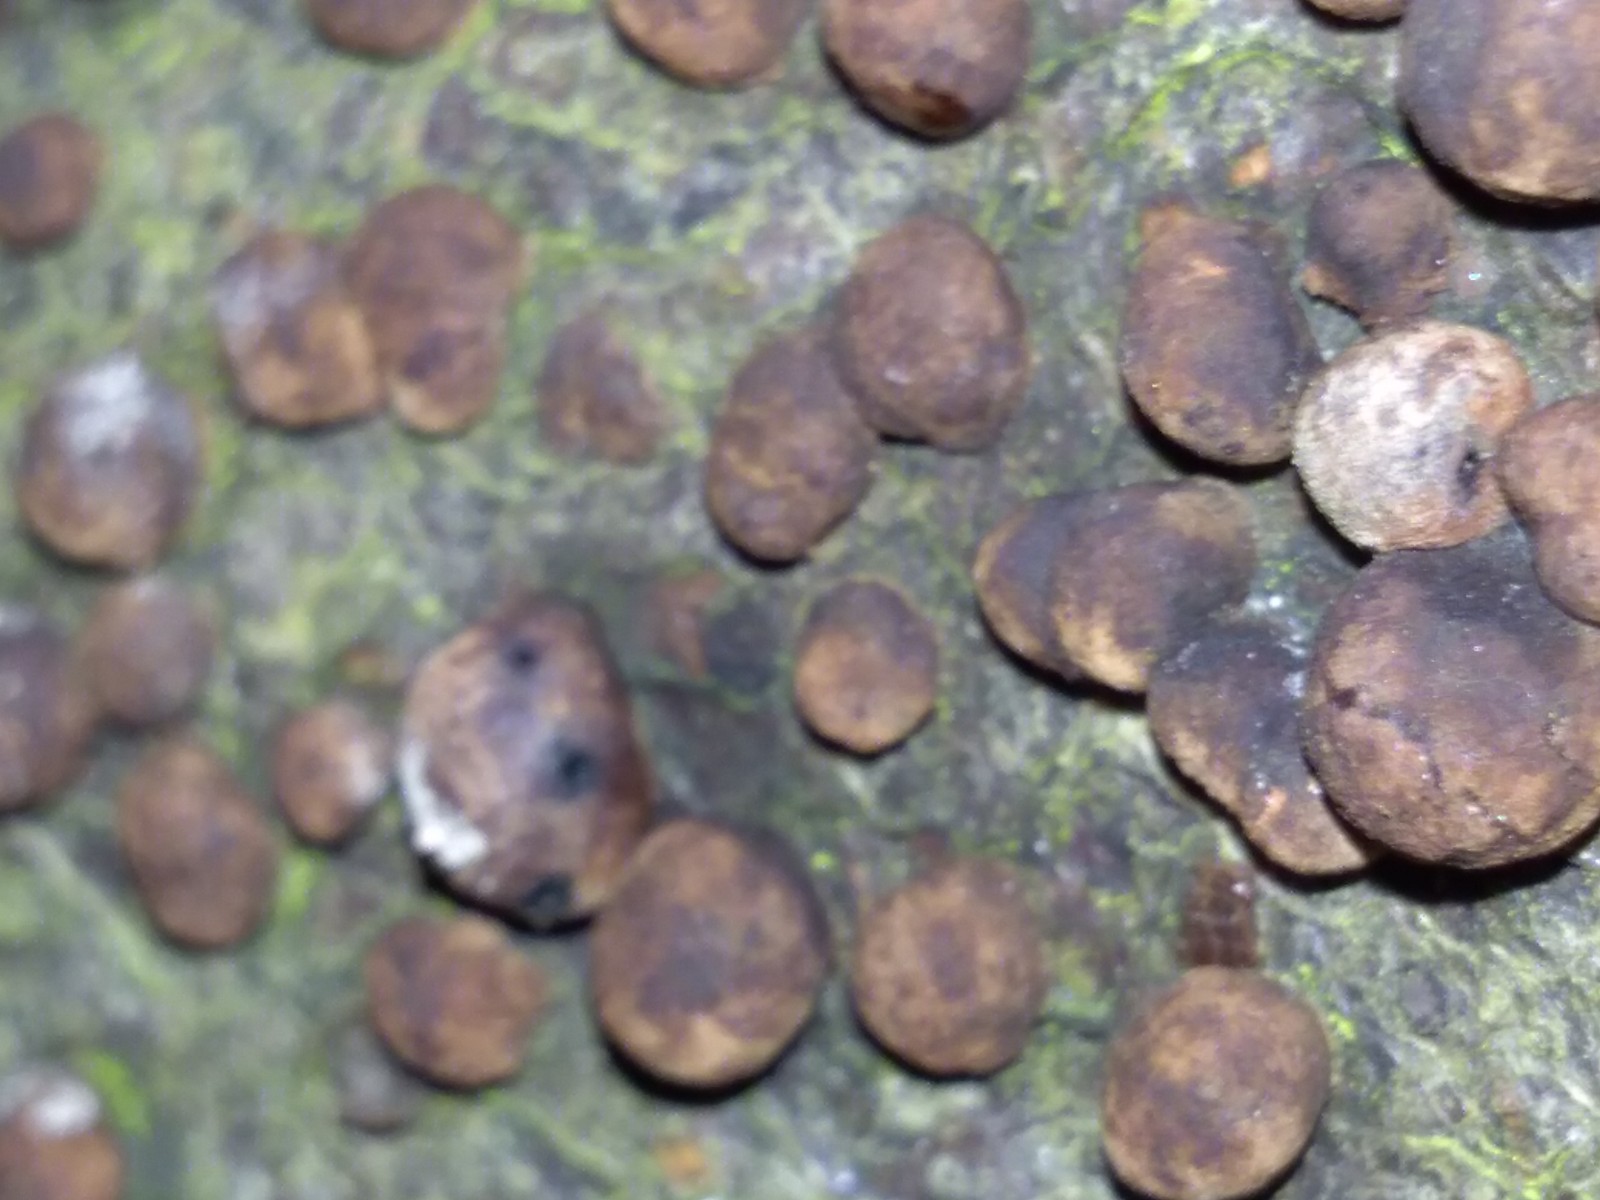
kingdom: Fungi
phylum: Ascomycota
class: Sordariomycetes
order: Xylariales
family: Hypoxylaceae
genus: Hypoxylon
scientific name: Hypoxylon fragiforme
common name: kuljordbær
